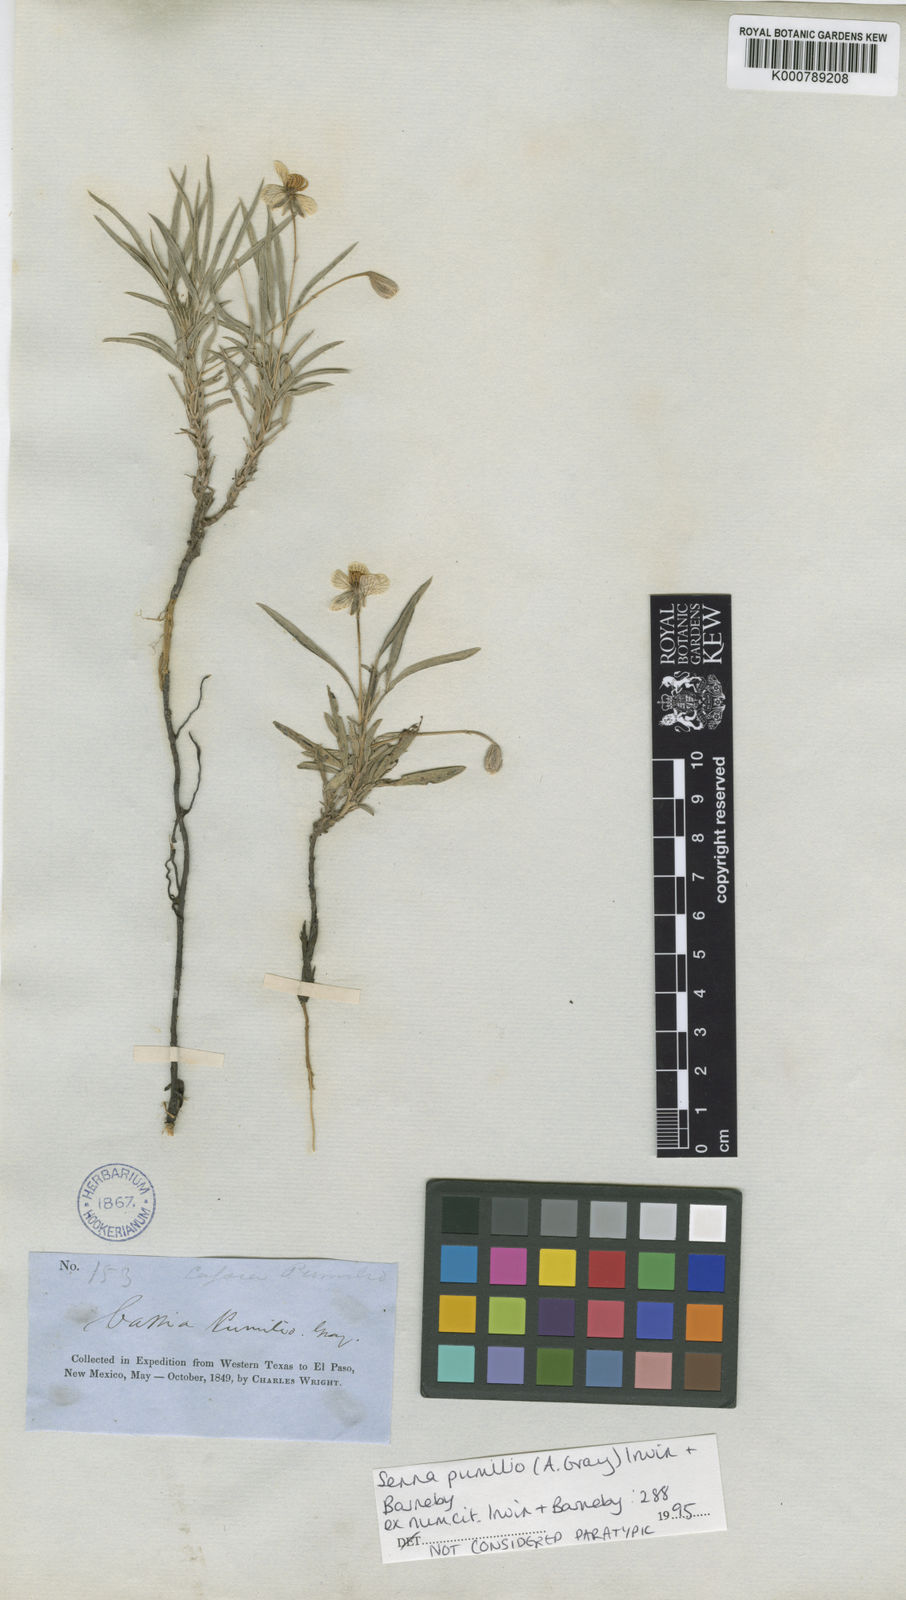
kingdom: Plantae
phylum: Tracheophyta
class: Magnoliopsida
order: Fabales
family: Fabaceae
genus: Senna
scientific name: Senna pumilio
